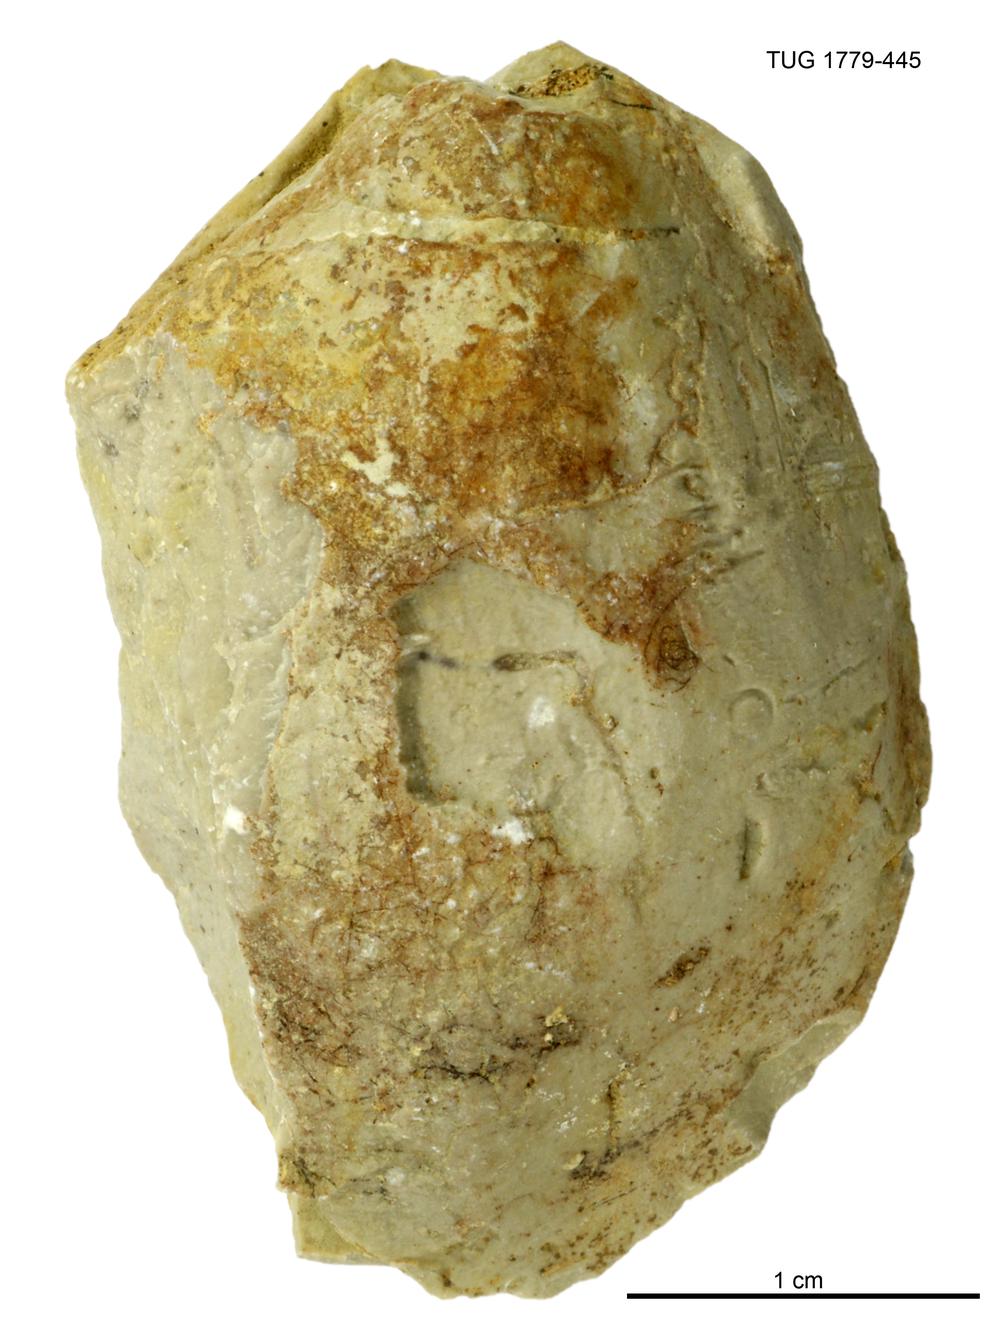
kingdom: Animalia
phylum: Mollusca
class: Bivalvia
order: Modiomorphida
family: Modiomorphidae
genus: Modiolopsis
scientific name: Modiolopsis
